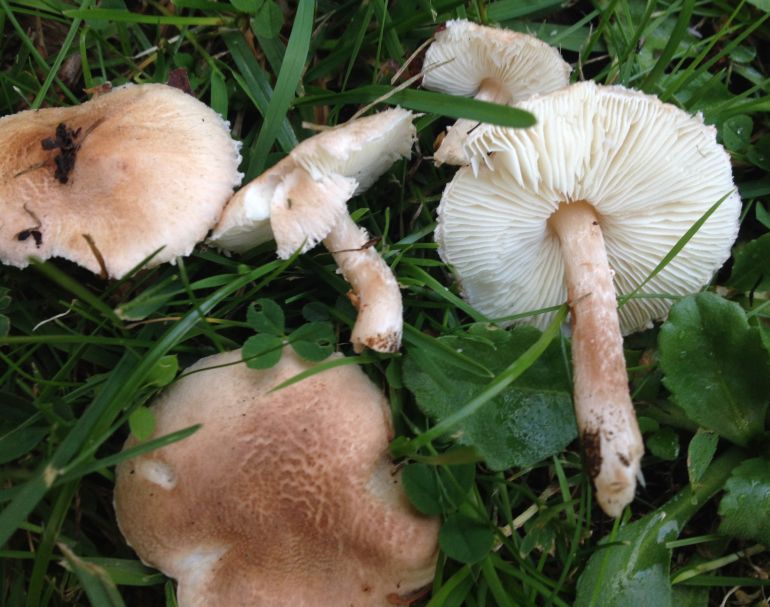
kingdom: Fungi
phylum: Basidiomycota
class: Agaricomycetes
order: Agaricales
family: Agaricaceae
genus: Lepiota
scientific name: Lepiota subincarnata
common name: kødfarvet parasolhat
